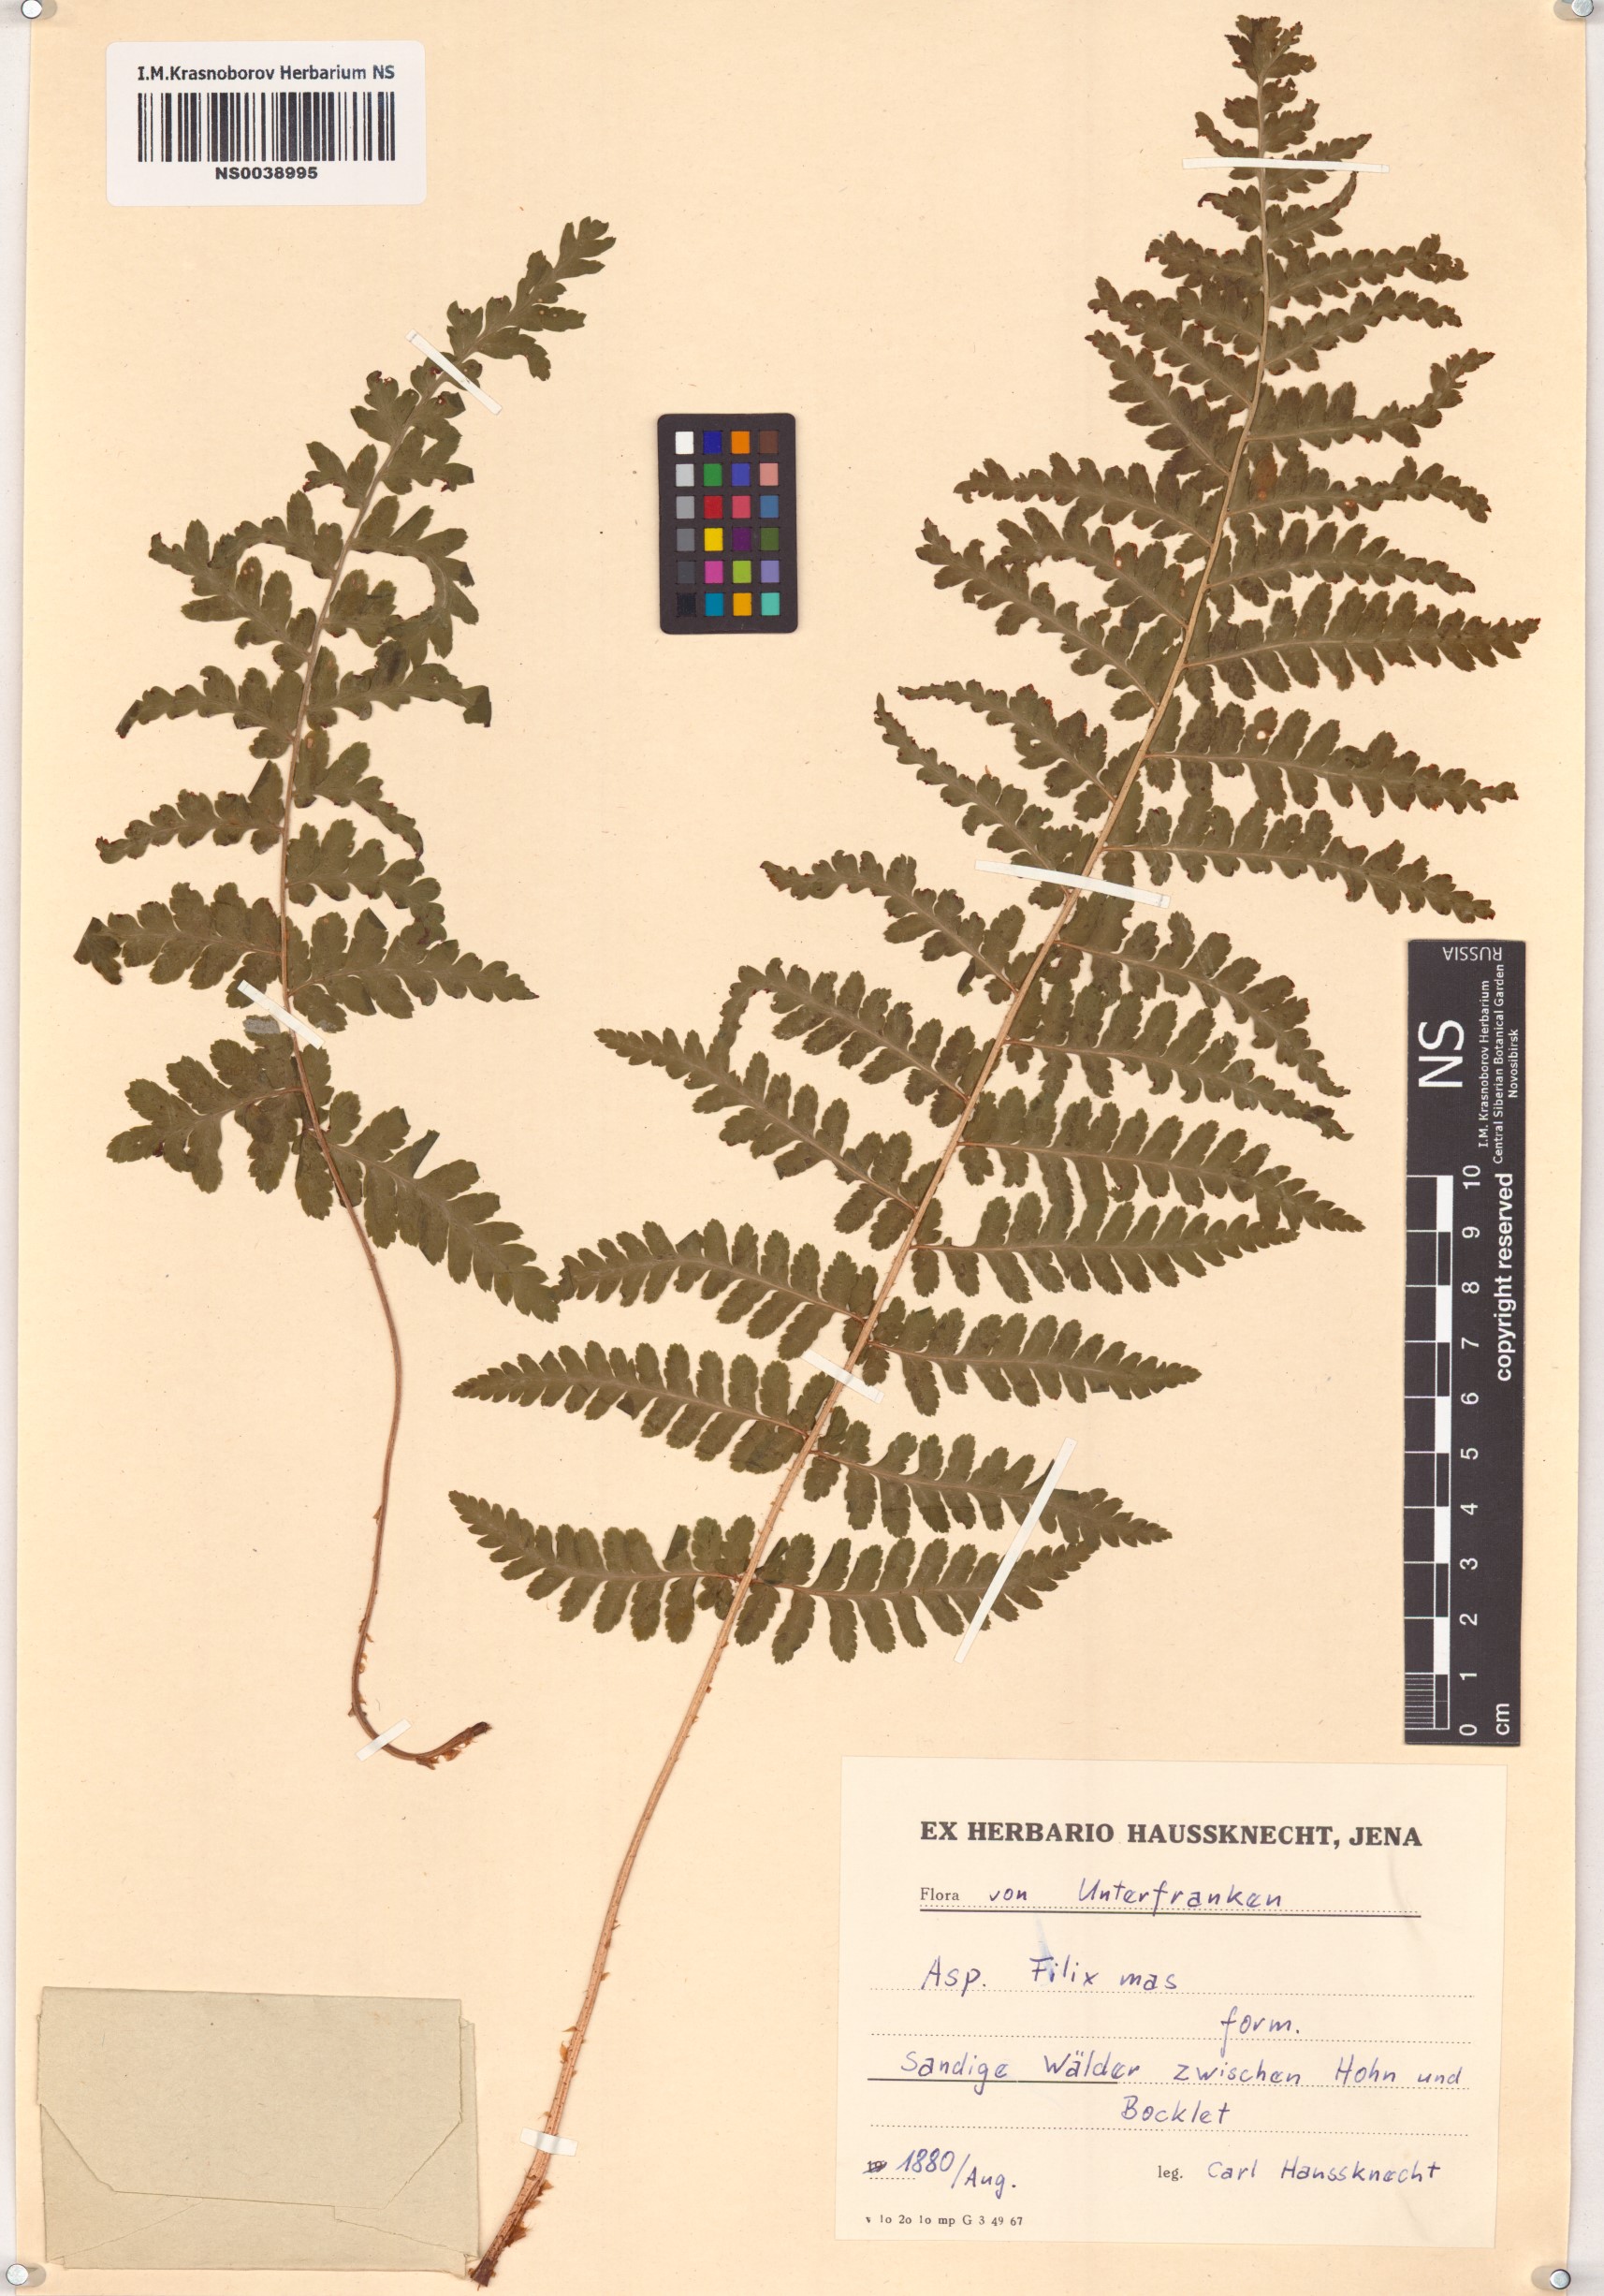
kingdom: Plantae
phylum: Tracheophyta
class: Polypodiopsida
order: Polypodiales
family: Dryopteridaceae
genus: Dryopteris
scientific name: Dryopteris filix-mas
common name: Male fern
